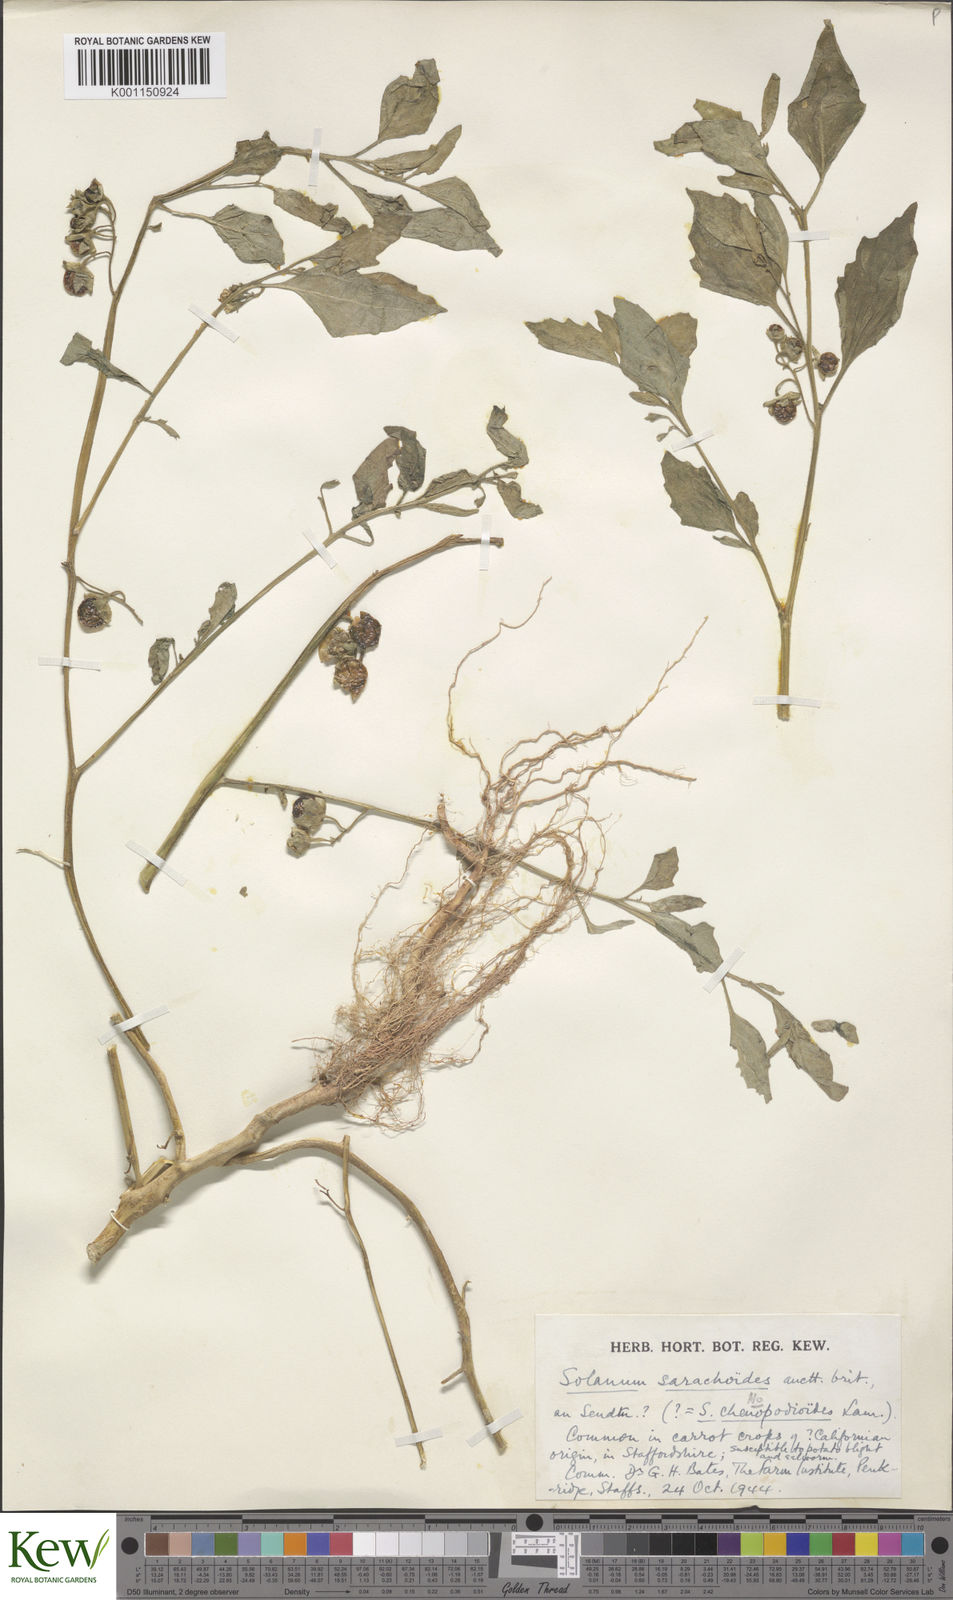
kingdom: Plantae
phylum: Tracheophyta
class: Magnoliopsida
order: Solanales
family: Solanaceae
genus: Solanum
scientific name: Solanum nitidibaccatum
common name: Hairy nightshade
